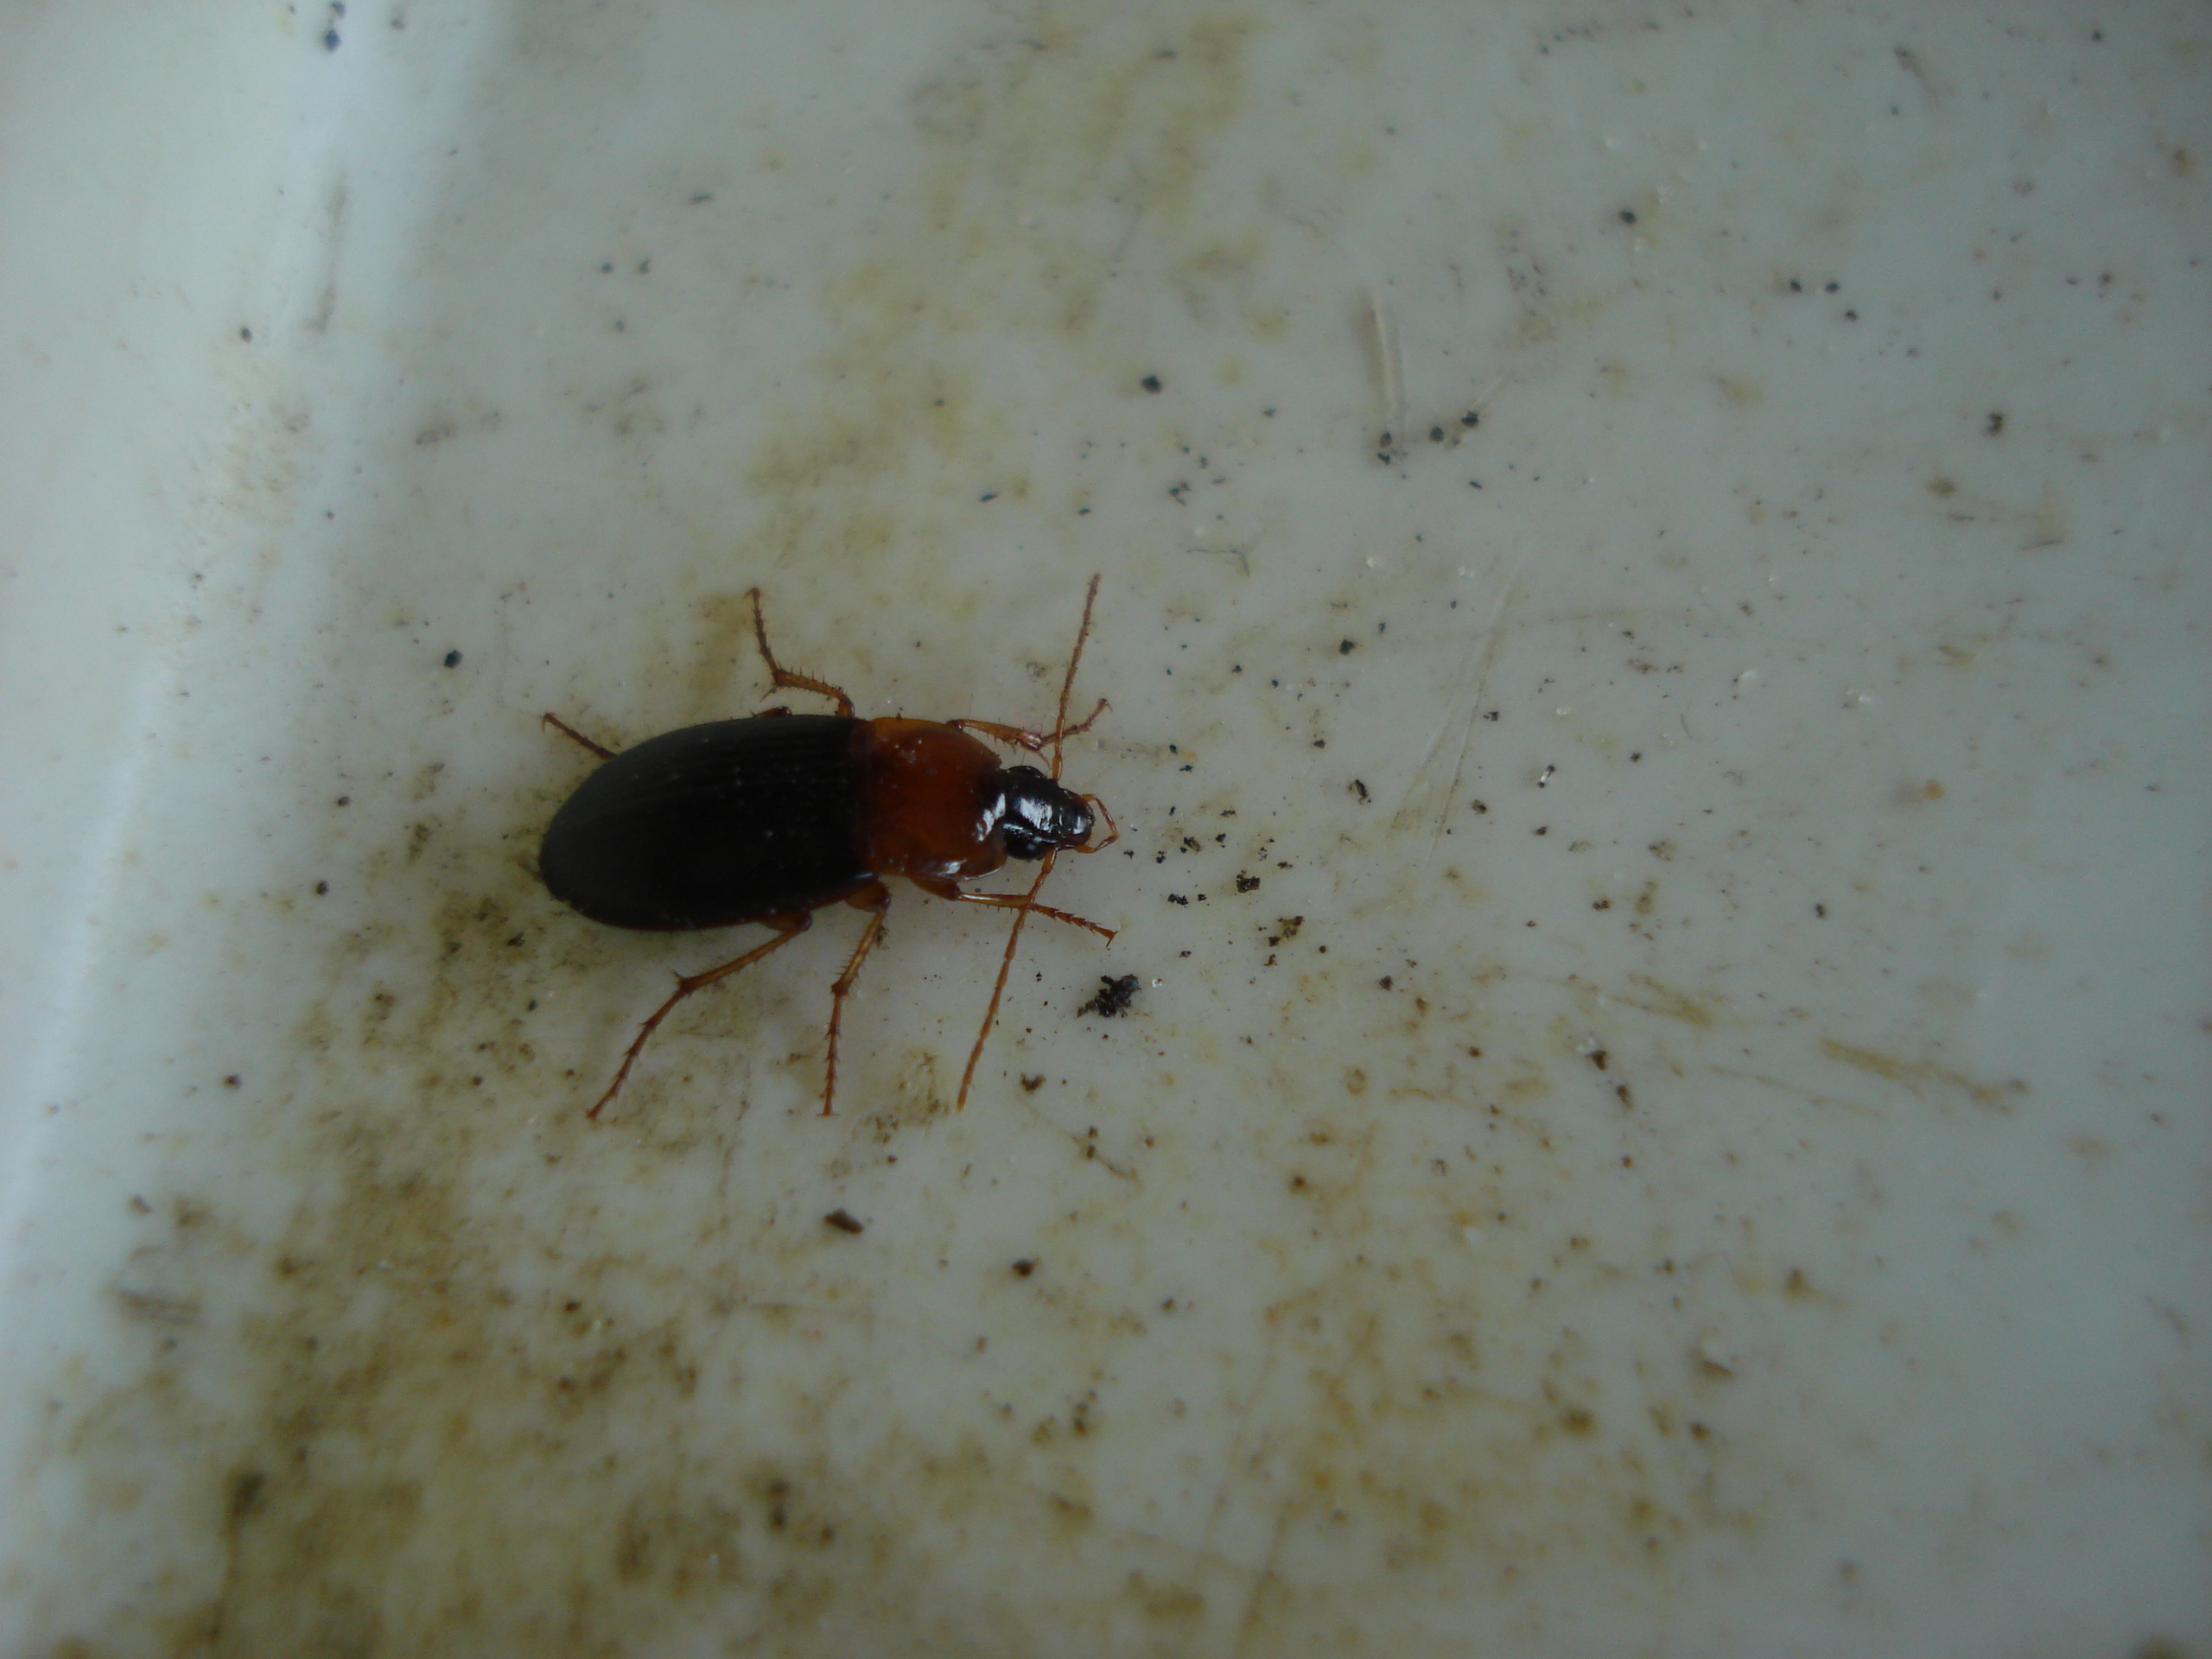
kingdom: Animalia
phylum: Arthropoda
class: Insecta
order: Coleoptera
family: Carabidae
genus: Calathus
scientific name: Calathus melanocephalus
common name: Rødbrystet torpedoløber
